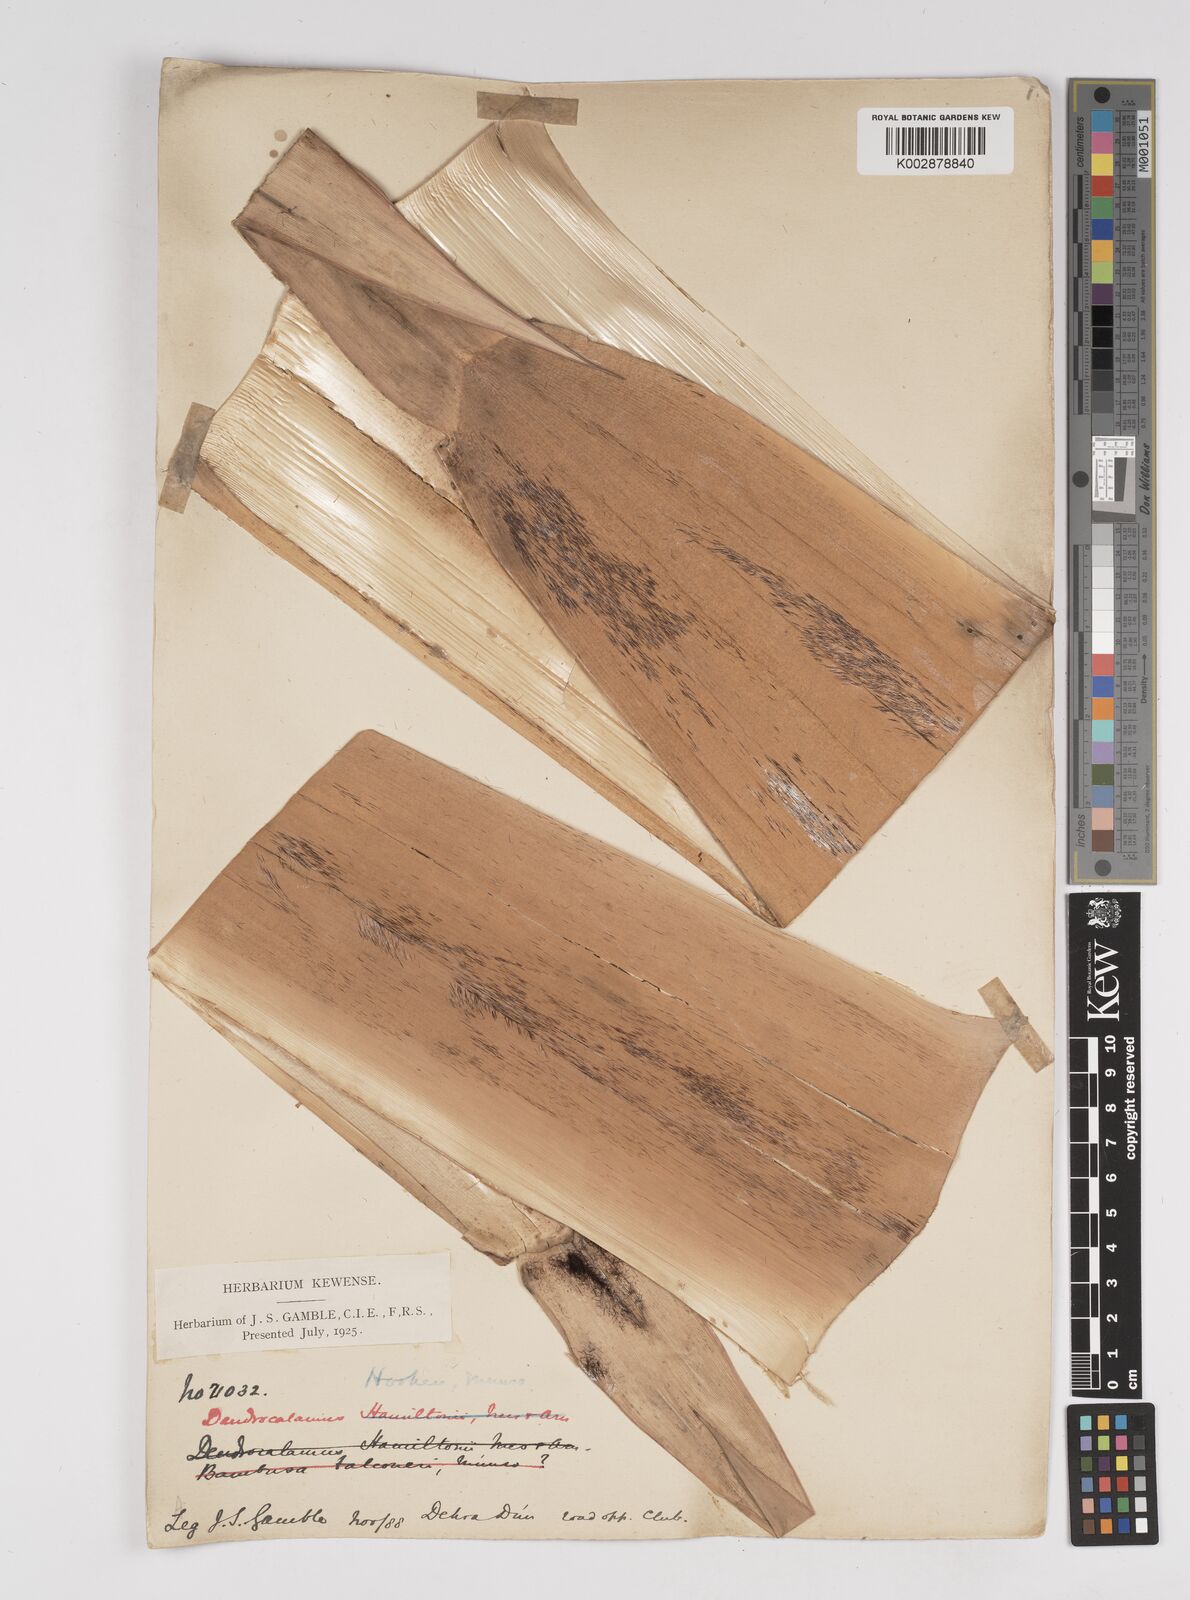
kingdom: Plantae
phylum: Tracheophyta
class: Liliopsida
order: Poales
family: Poaceae
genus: Dendrocalamus
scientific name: Dendrocalamus hookeri
